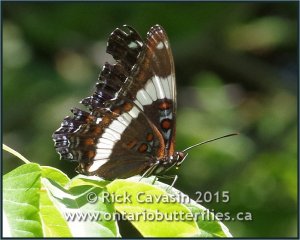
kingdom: Animalia
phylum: Arthropoda
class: Insecta
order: Lepidoptera
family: Nymphalidae
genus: Limenitis
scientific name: Limenitis arthemis
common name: Red-spotted Admiral
